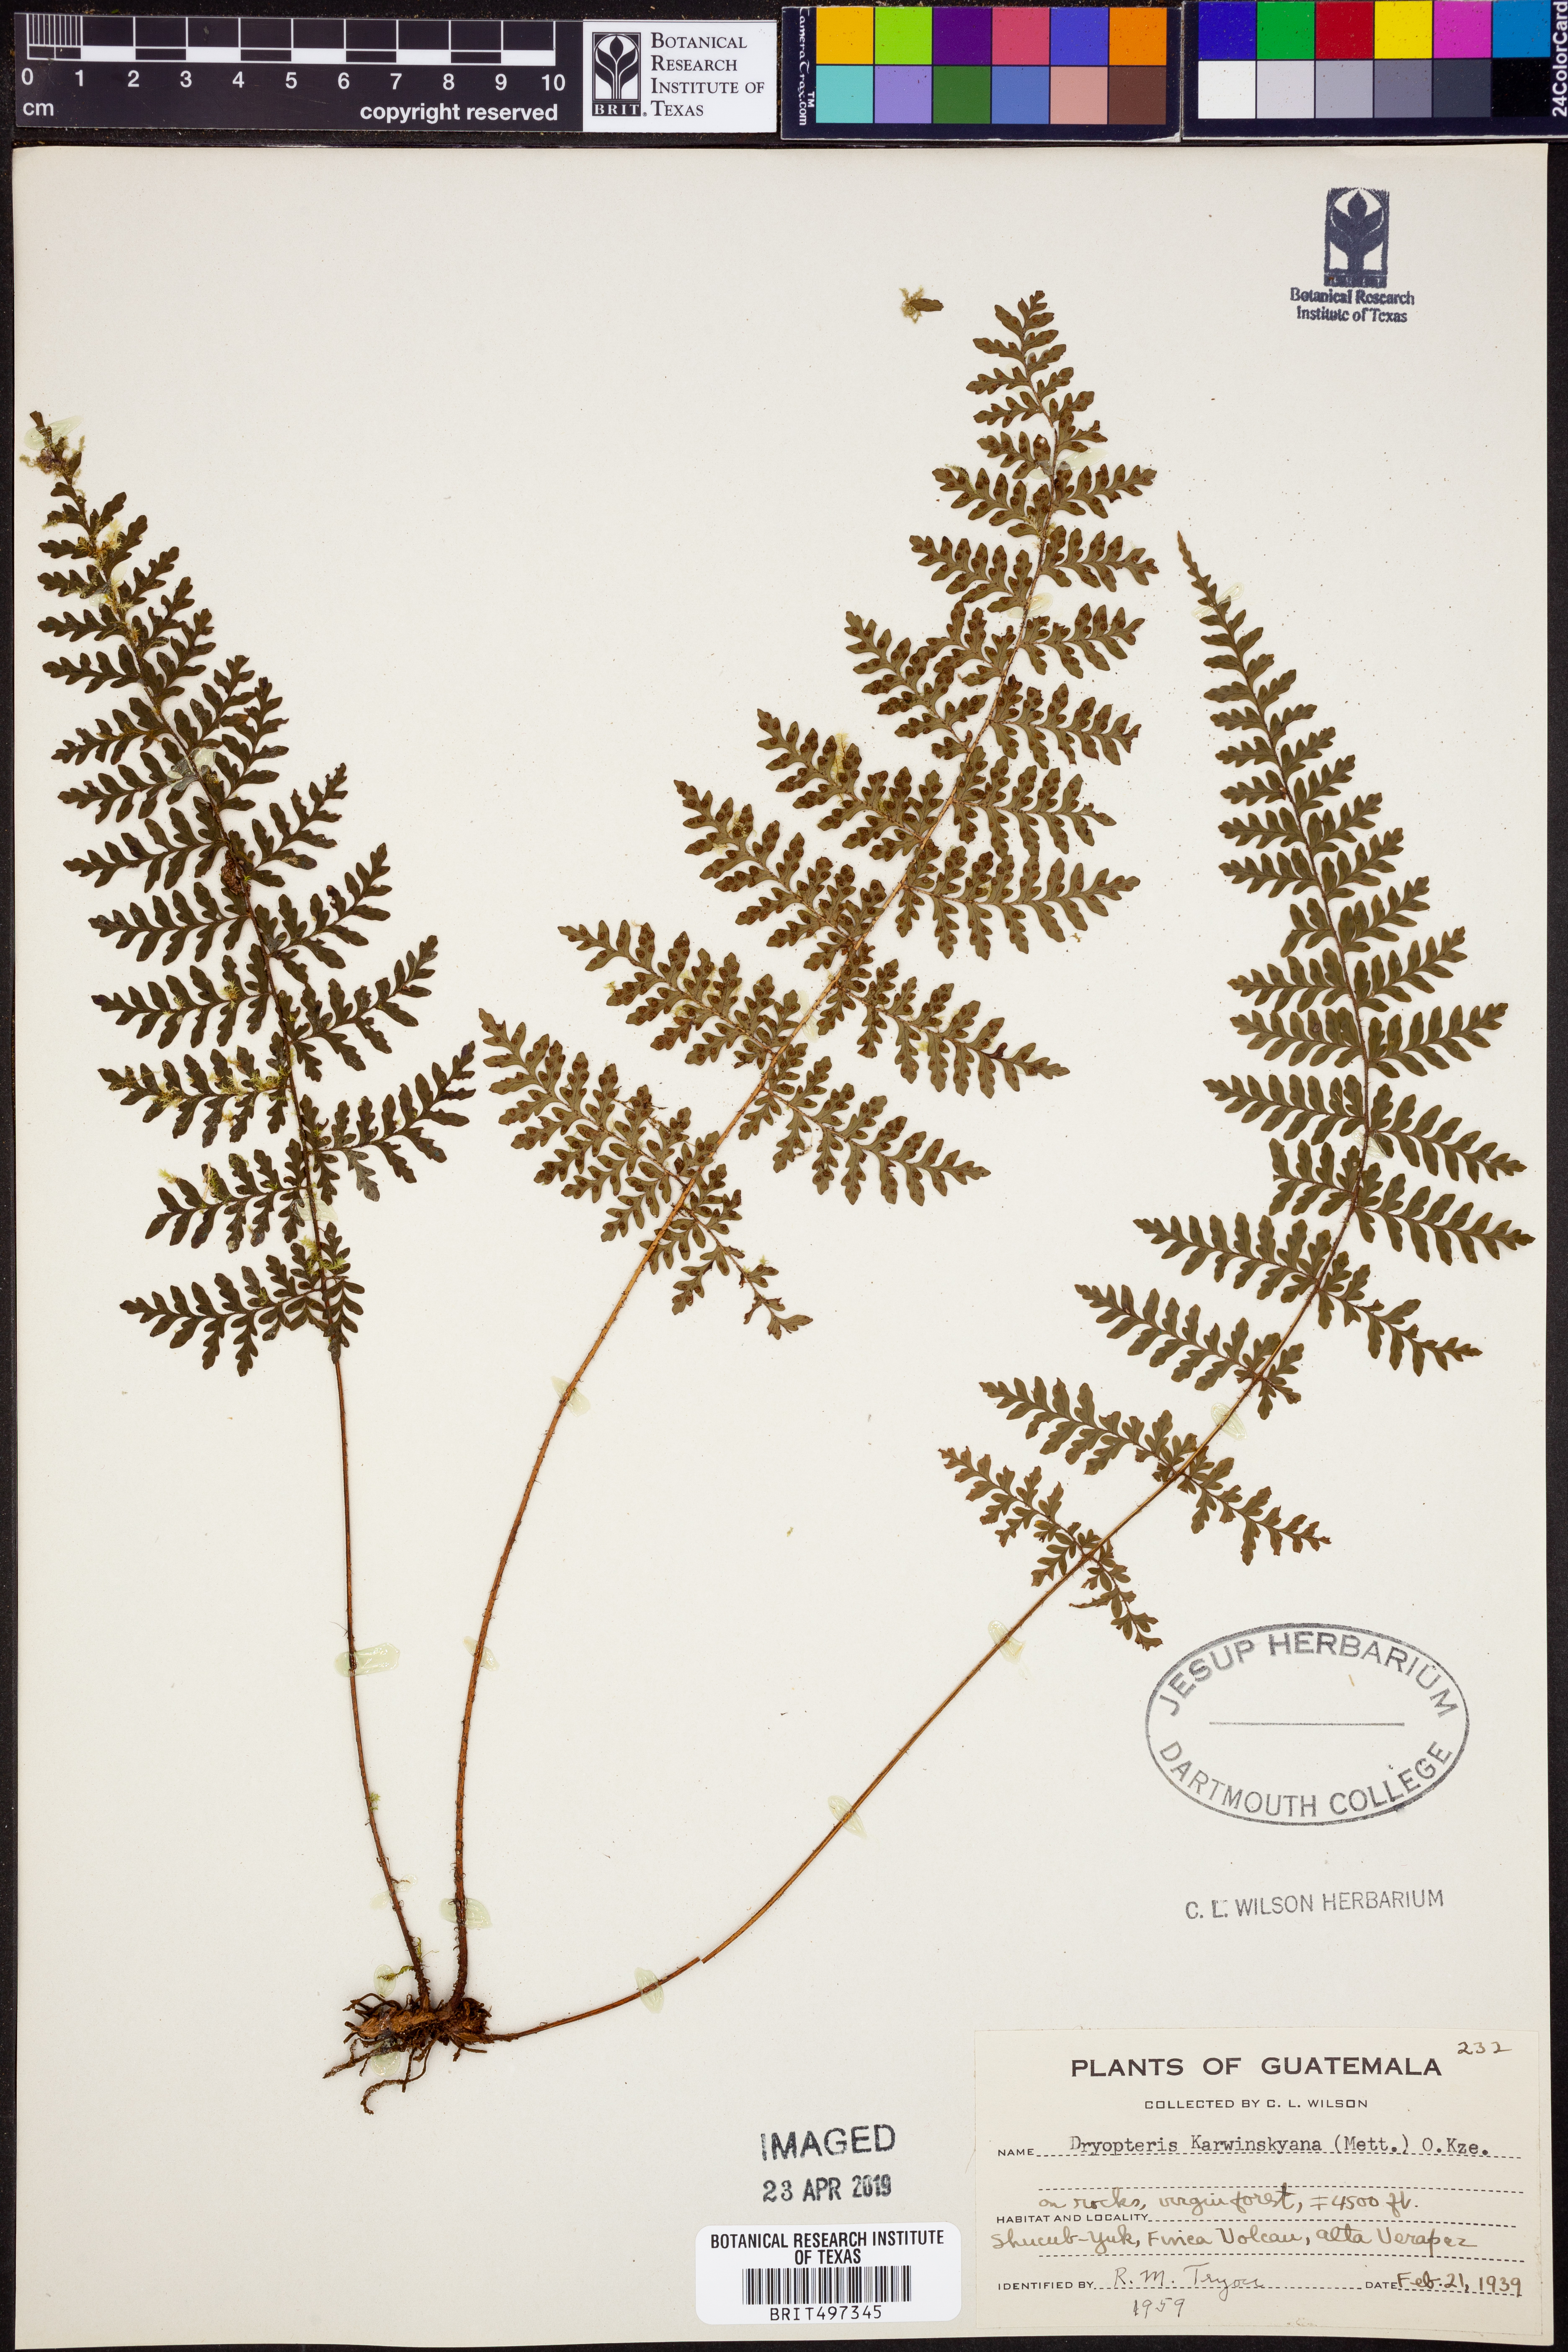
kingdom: Plantae
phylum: Tracheophyta
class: Polypodiopsida
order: Polypodiales
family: Dryopteridaceae
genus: Dryopteris
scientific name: Dryopteris karwinskyana
